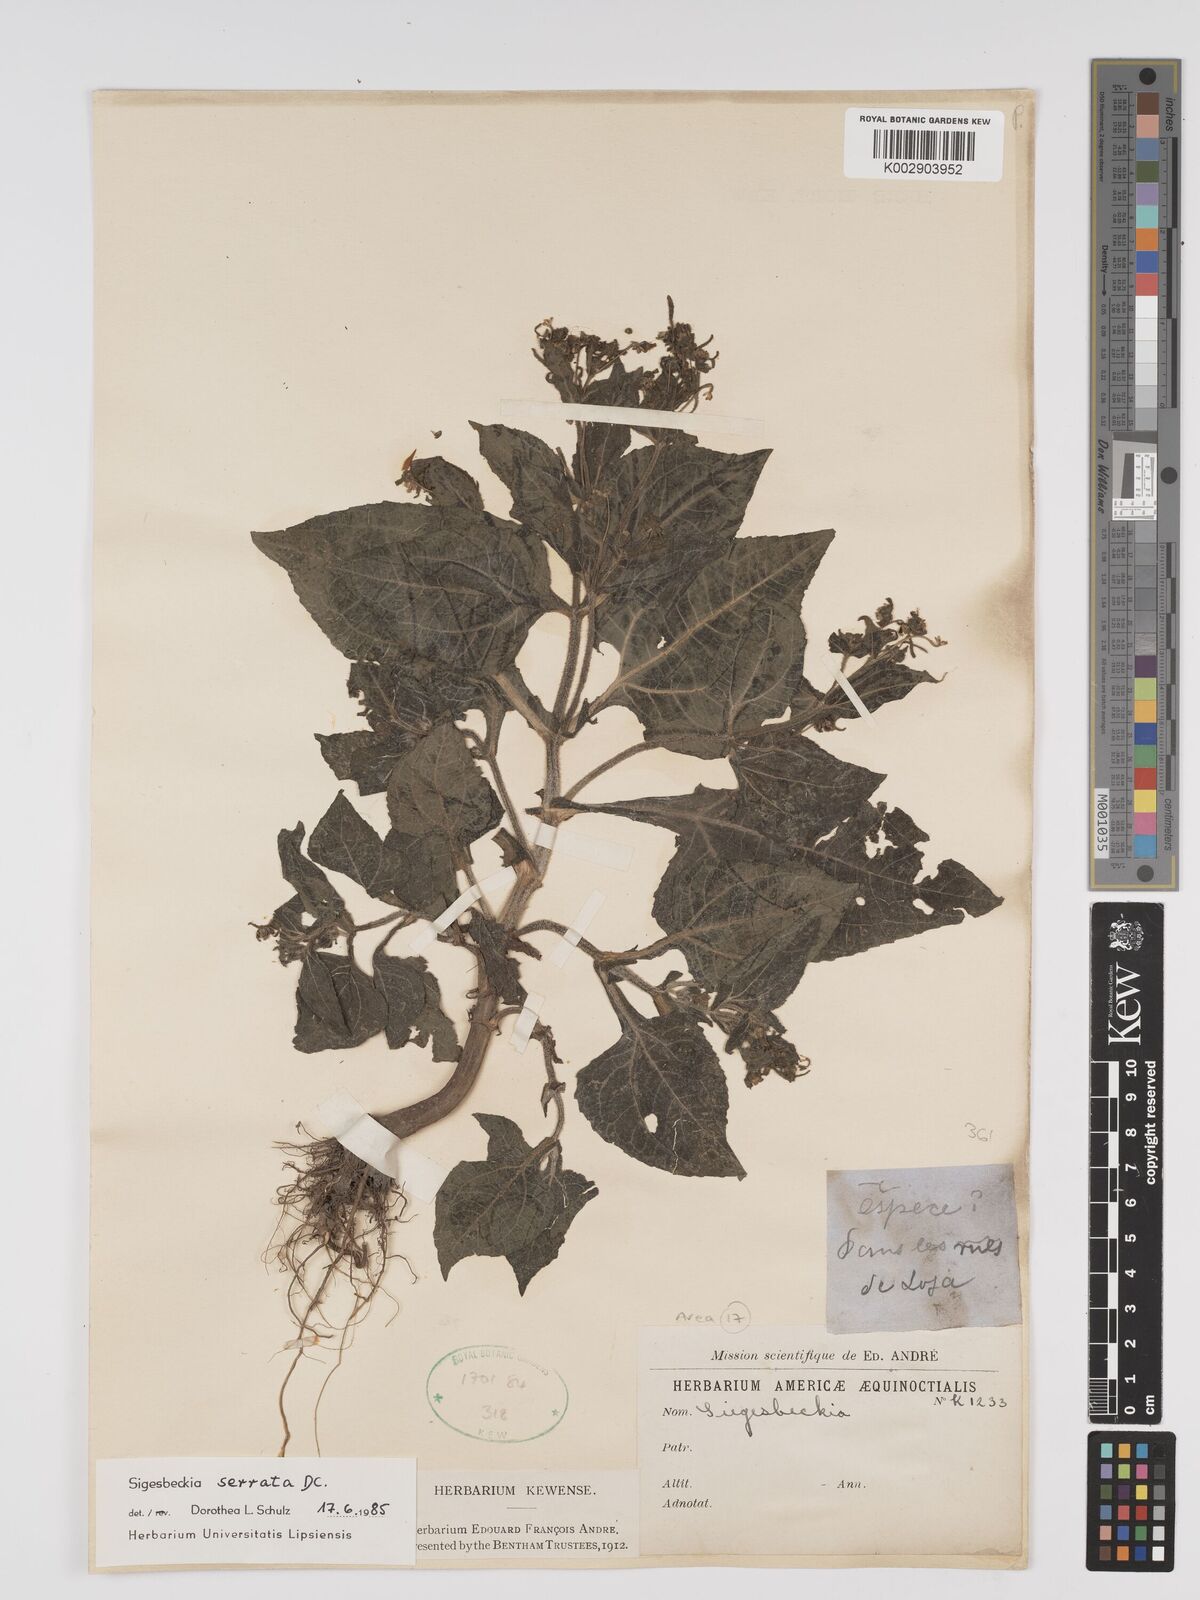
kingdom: Plantae
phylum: Tracheophyta
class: Magnoliopsida
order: Asterales
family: Asteraceae
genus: Sigesbeckia
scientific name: Sigesbeckia jorullensis
